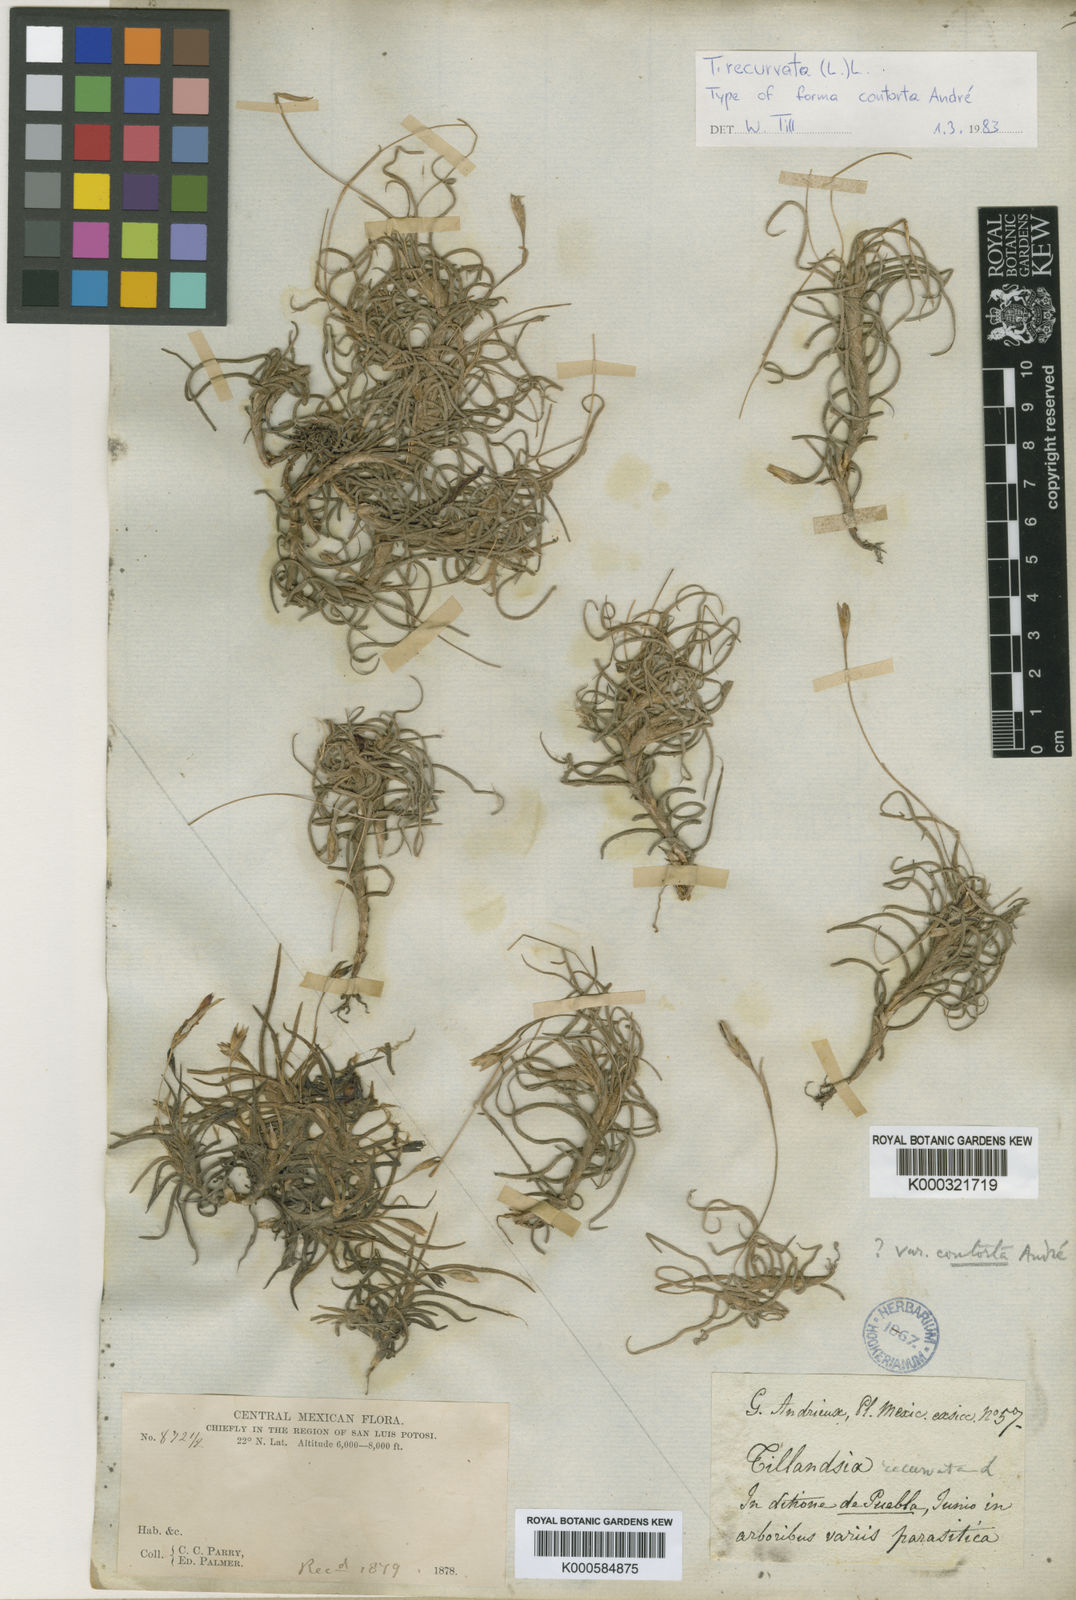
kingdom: Plantae
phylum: Tracheophyta
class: Liliopsida
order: Poales
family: Bromeliaceae
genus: Tillandsia
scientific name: Tillandsia recurvata
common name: Small ballmoss
